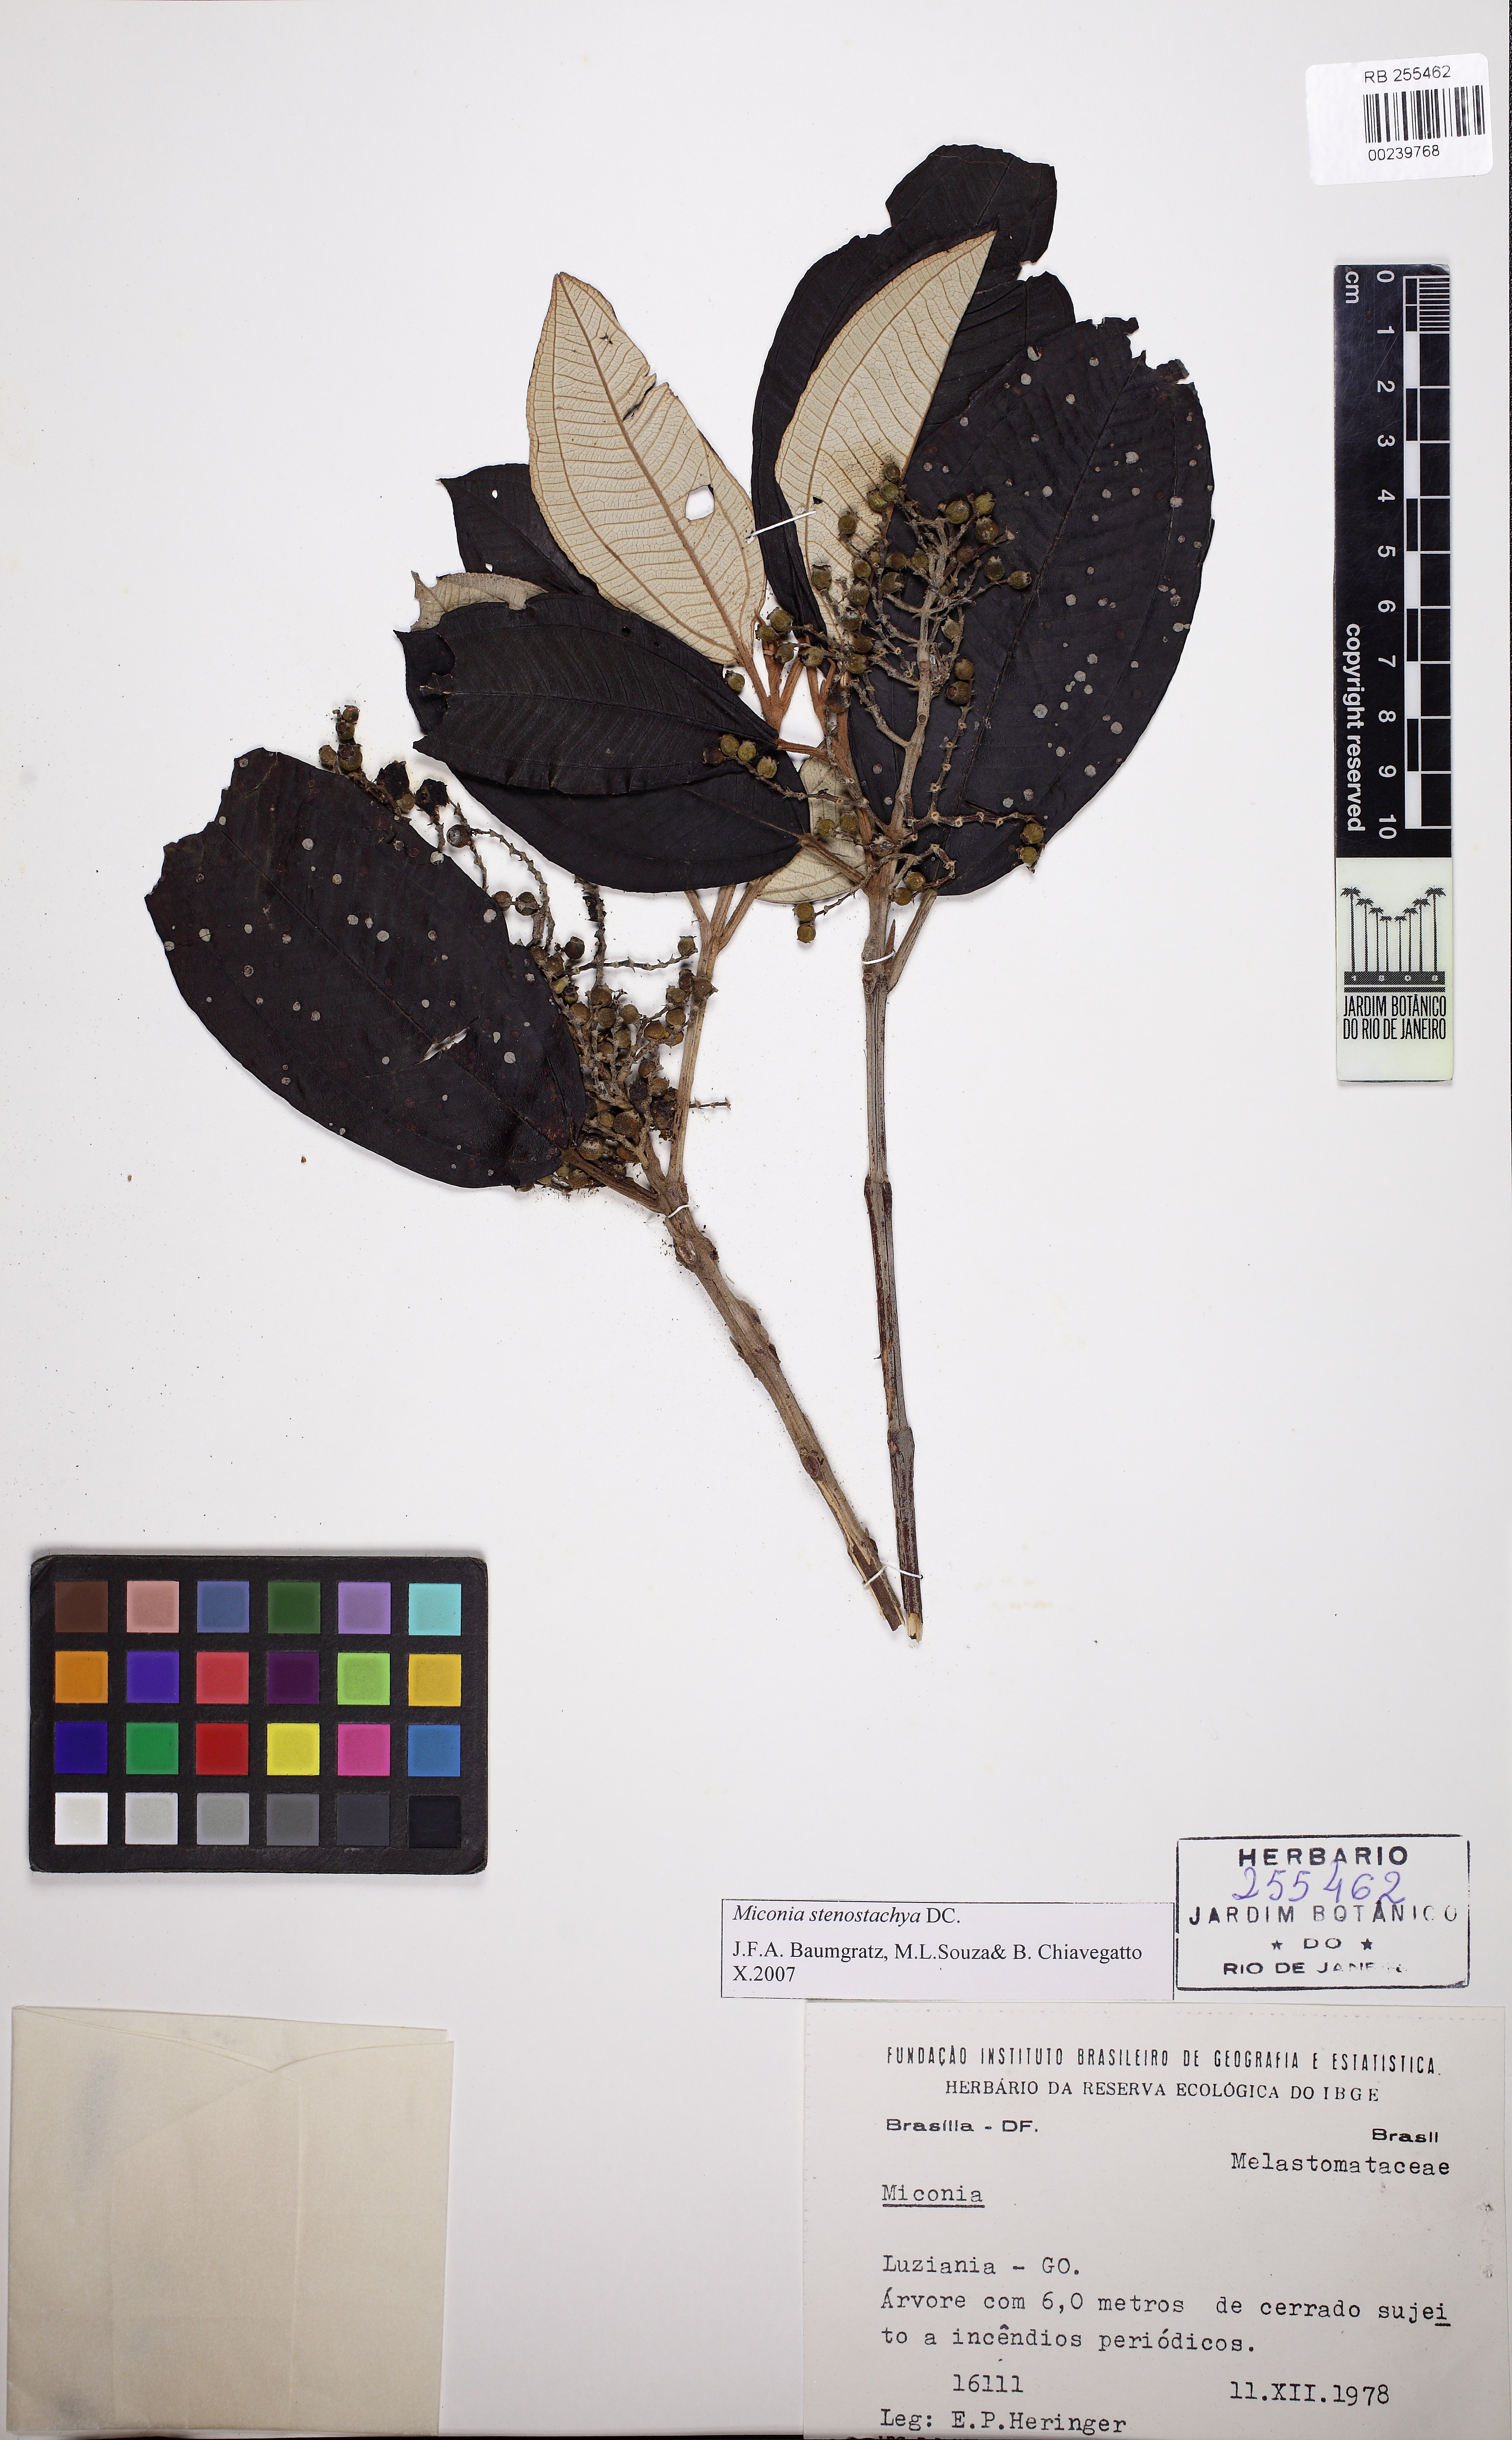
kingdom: Plantae
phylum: Tracheophyta
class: Magnoliopsida
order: Myrtales
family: Melastomataceae
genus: Miconia
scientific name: Miconia stenostachya
